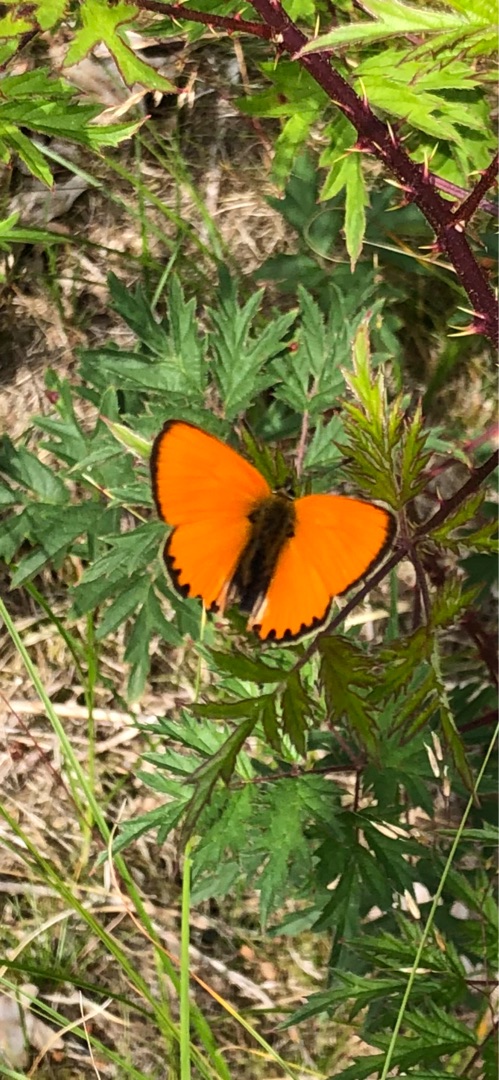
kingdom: Animalia
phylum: Arthropoda
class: Insecta
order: Lepidoptera
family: Lycaenidae
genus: Lycaena
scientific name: Lycaena virgaureae
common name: Dukatsommerfugl
